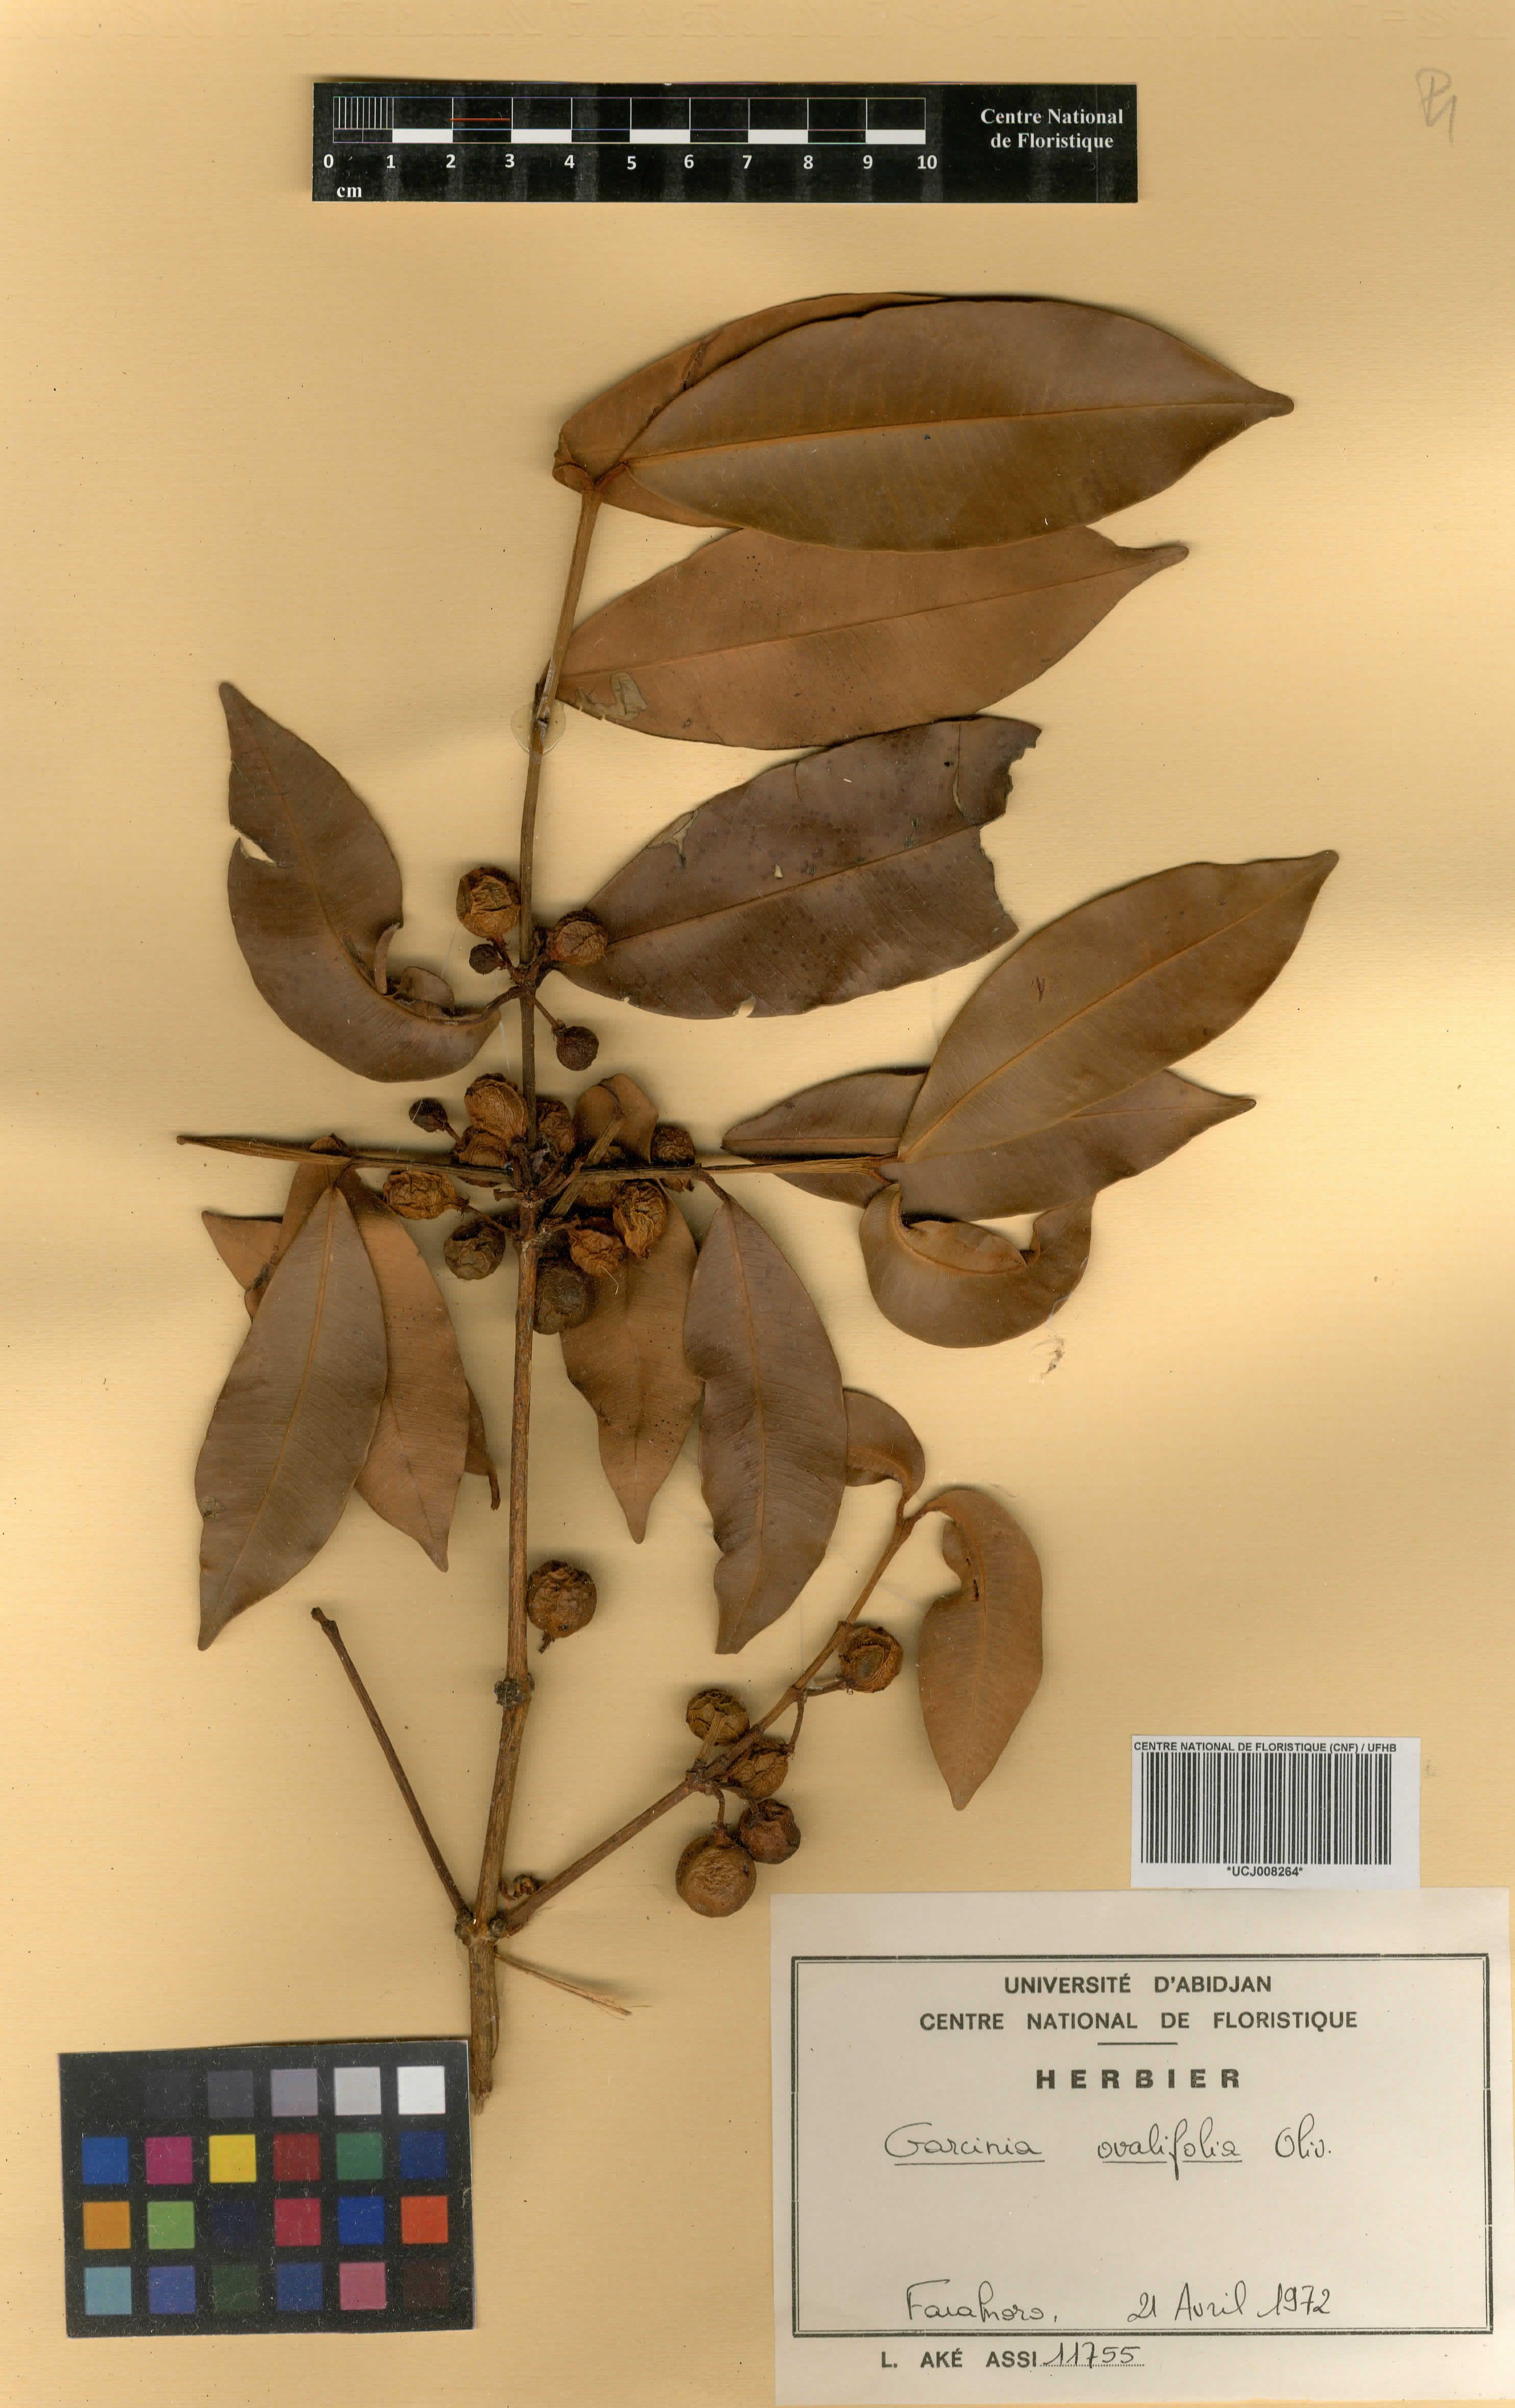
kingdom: Plantae
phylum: Tracheophyta
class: Magnoliopsida
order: Malpighiales
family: Clusiaceae
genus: Garcinia
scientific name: Garcinia ovalifolia
